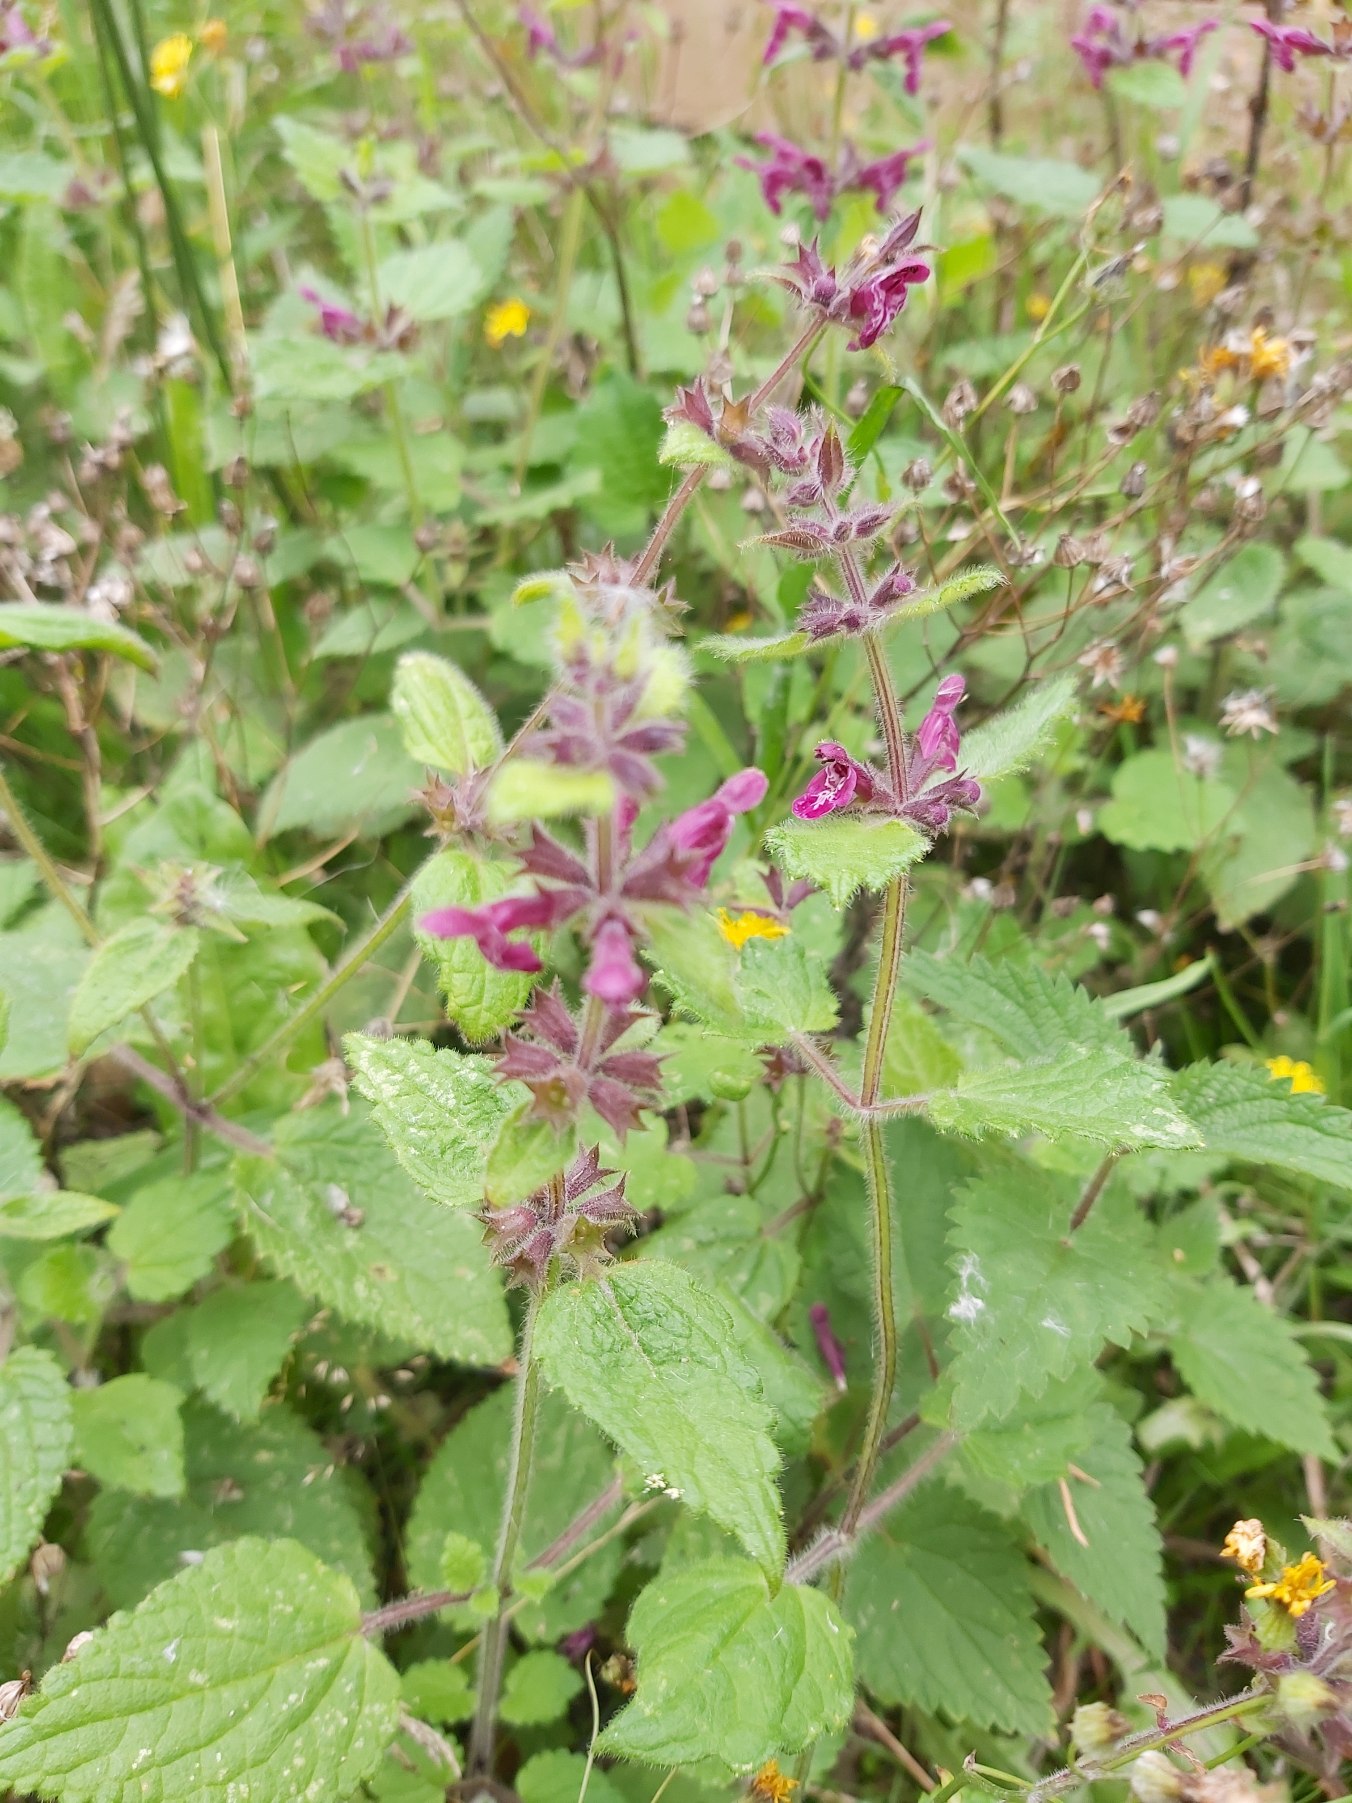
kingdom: Plantae
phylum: Tracheophyta
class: Magnoliopsida
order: Lamiales
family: Lamiaceae
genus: Stachys
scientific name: Stachys sylvatica
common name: Skov-galtetand
